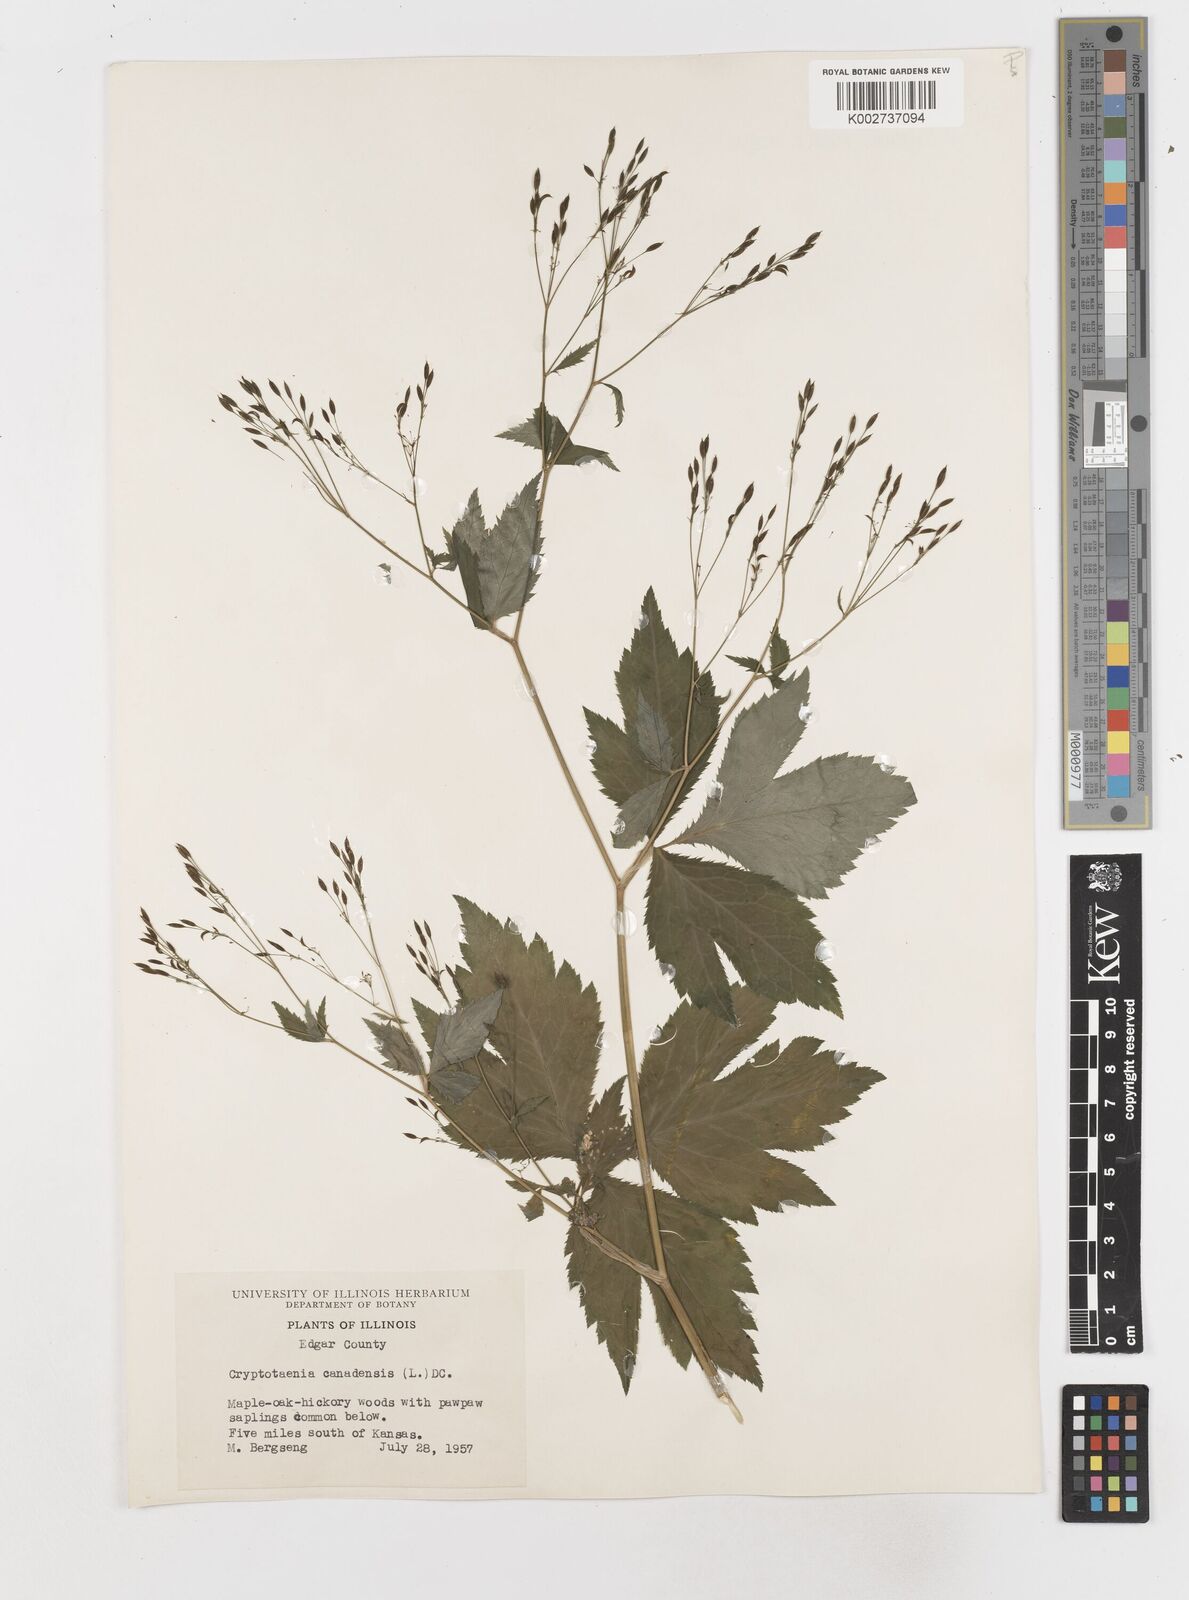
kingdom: Plantae
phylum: Tracheophyta
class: Magnoliopsida
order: Apiales
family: Apiaceae
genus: Cryptotaenia
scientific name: Cryptotaenia canadensis
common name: Honewort
